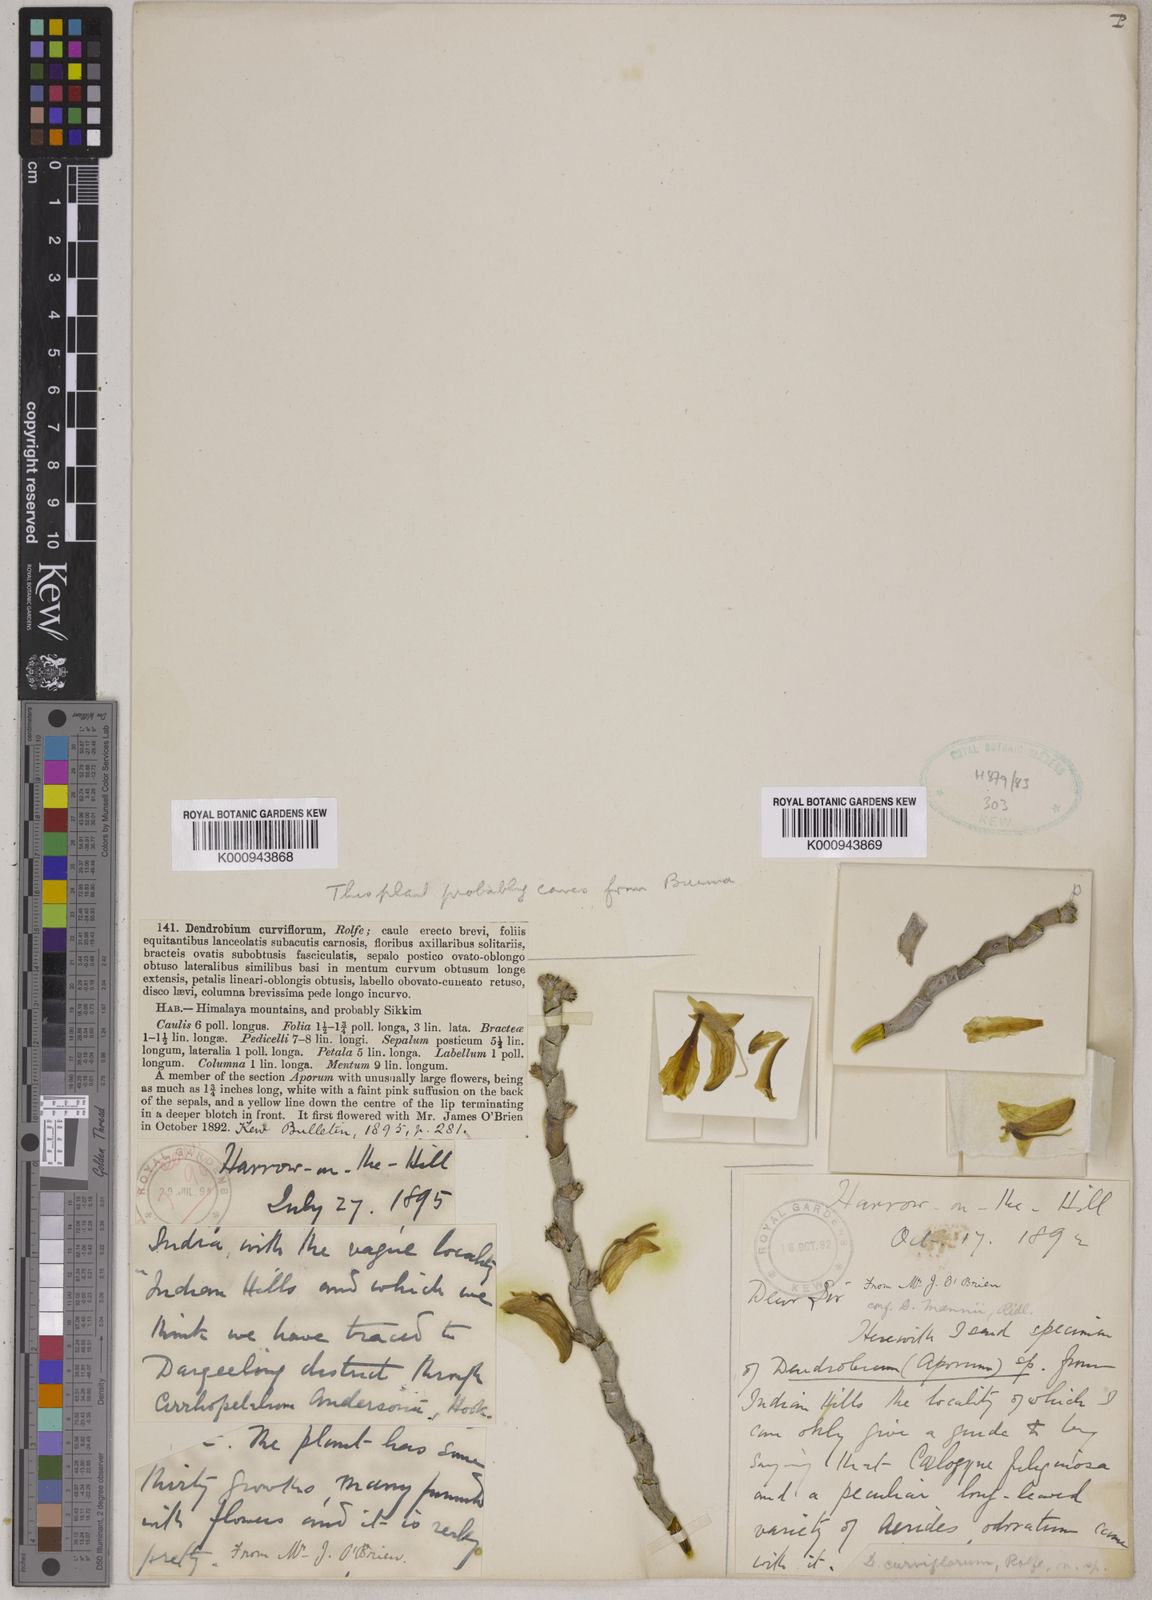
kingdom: Plantae
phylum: Tracheophyta
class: Liliopsida
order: Asparagales
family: Orchidaceae
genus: Dendrobium
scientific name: Dendrobium curviflorum
